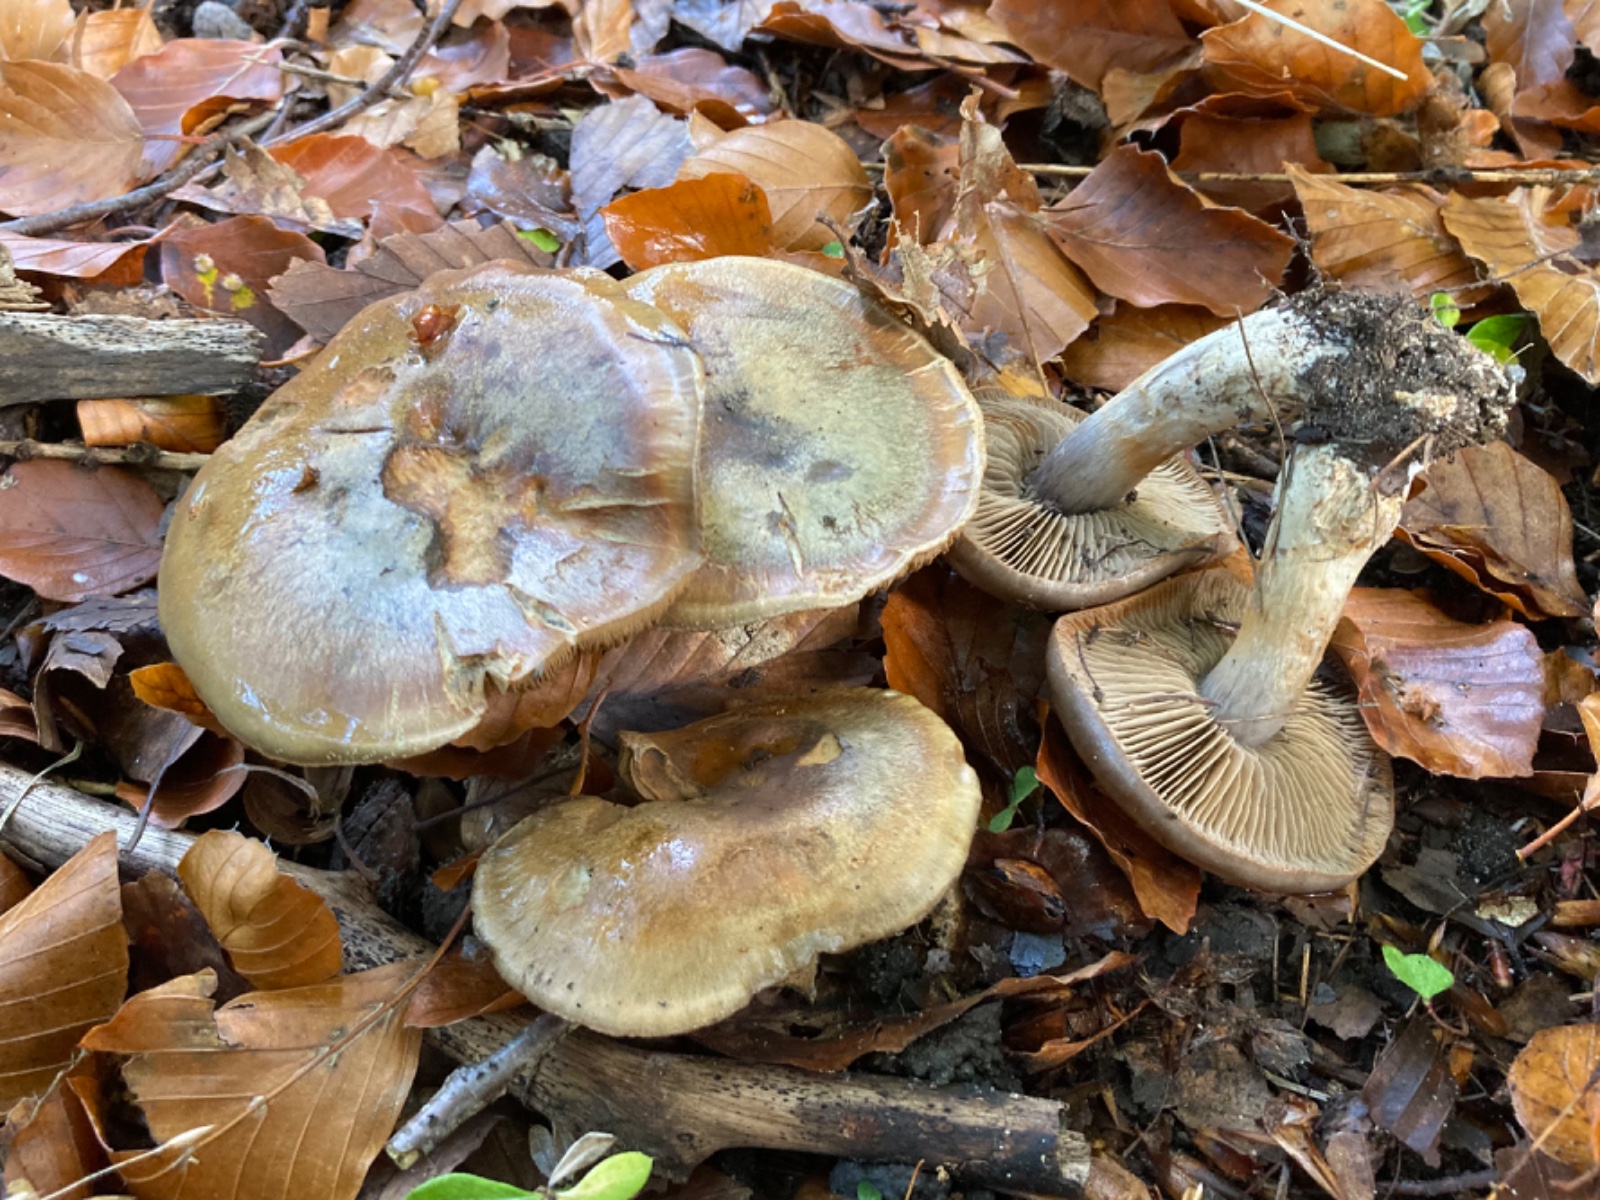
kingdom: Fungi
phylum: Basidiomycota
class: Agaricomycetes
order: Agaricales
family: Cortinariaceae
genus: Cortinarius
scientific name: Cortinarius
